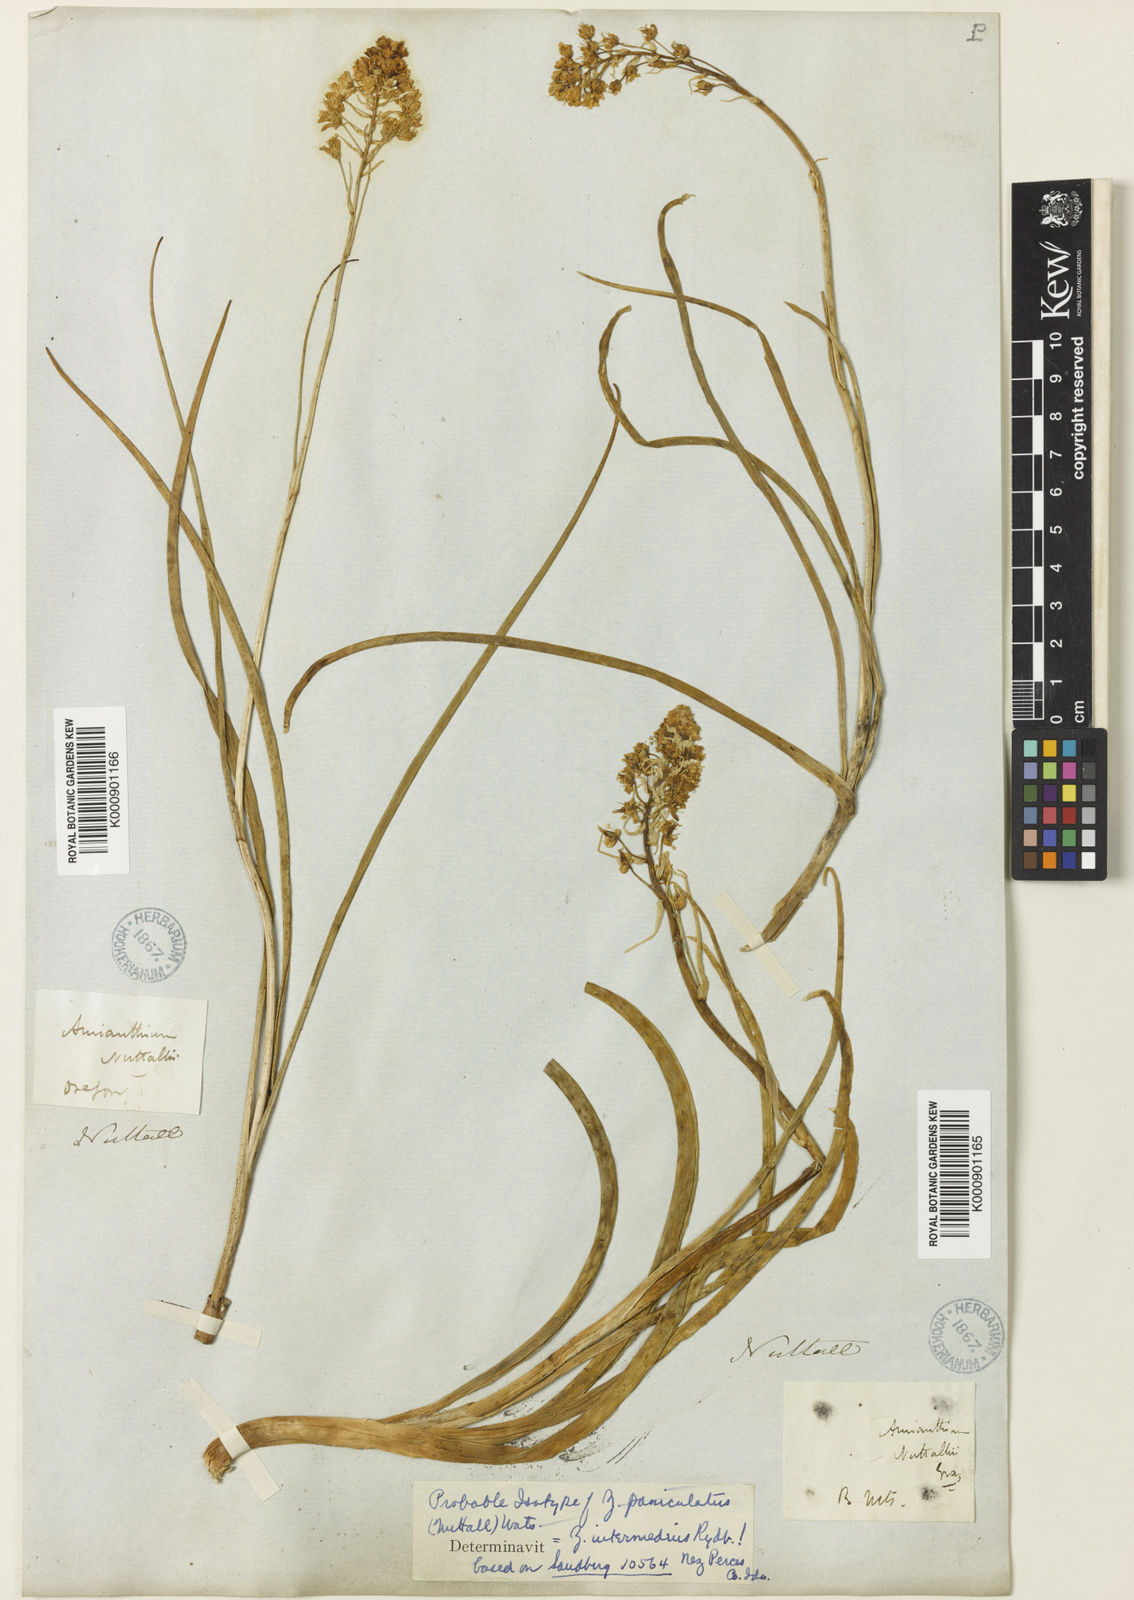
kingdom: Plantae
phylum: Tracheophyta
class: Liliopsida
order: Liliales
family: Melanthiaceae
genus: Toxicoscordion
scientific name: Toxicoscordion paniculatum
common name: Foothill death camas
